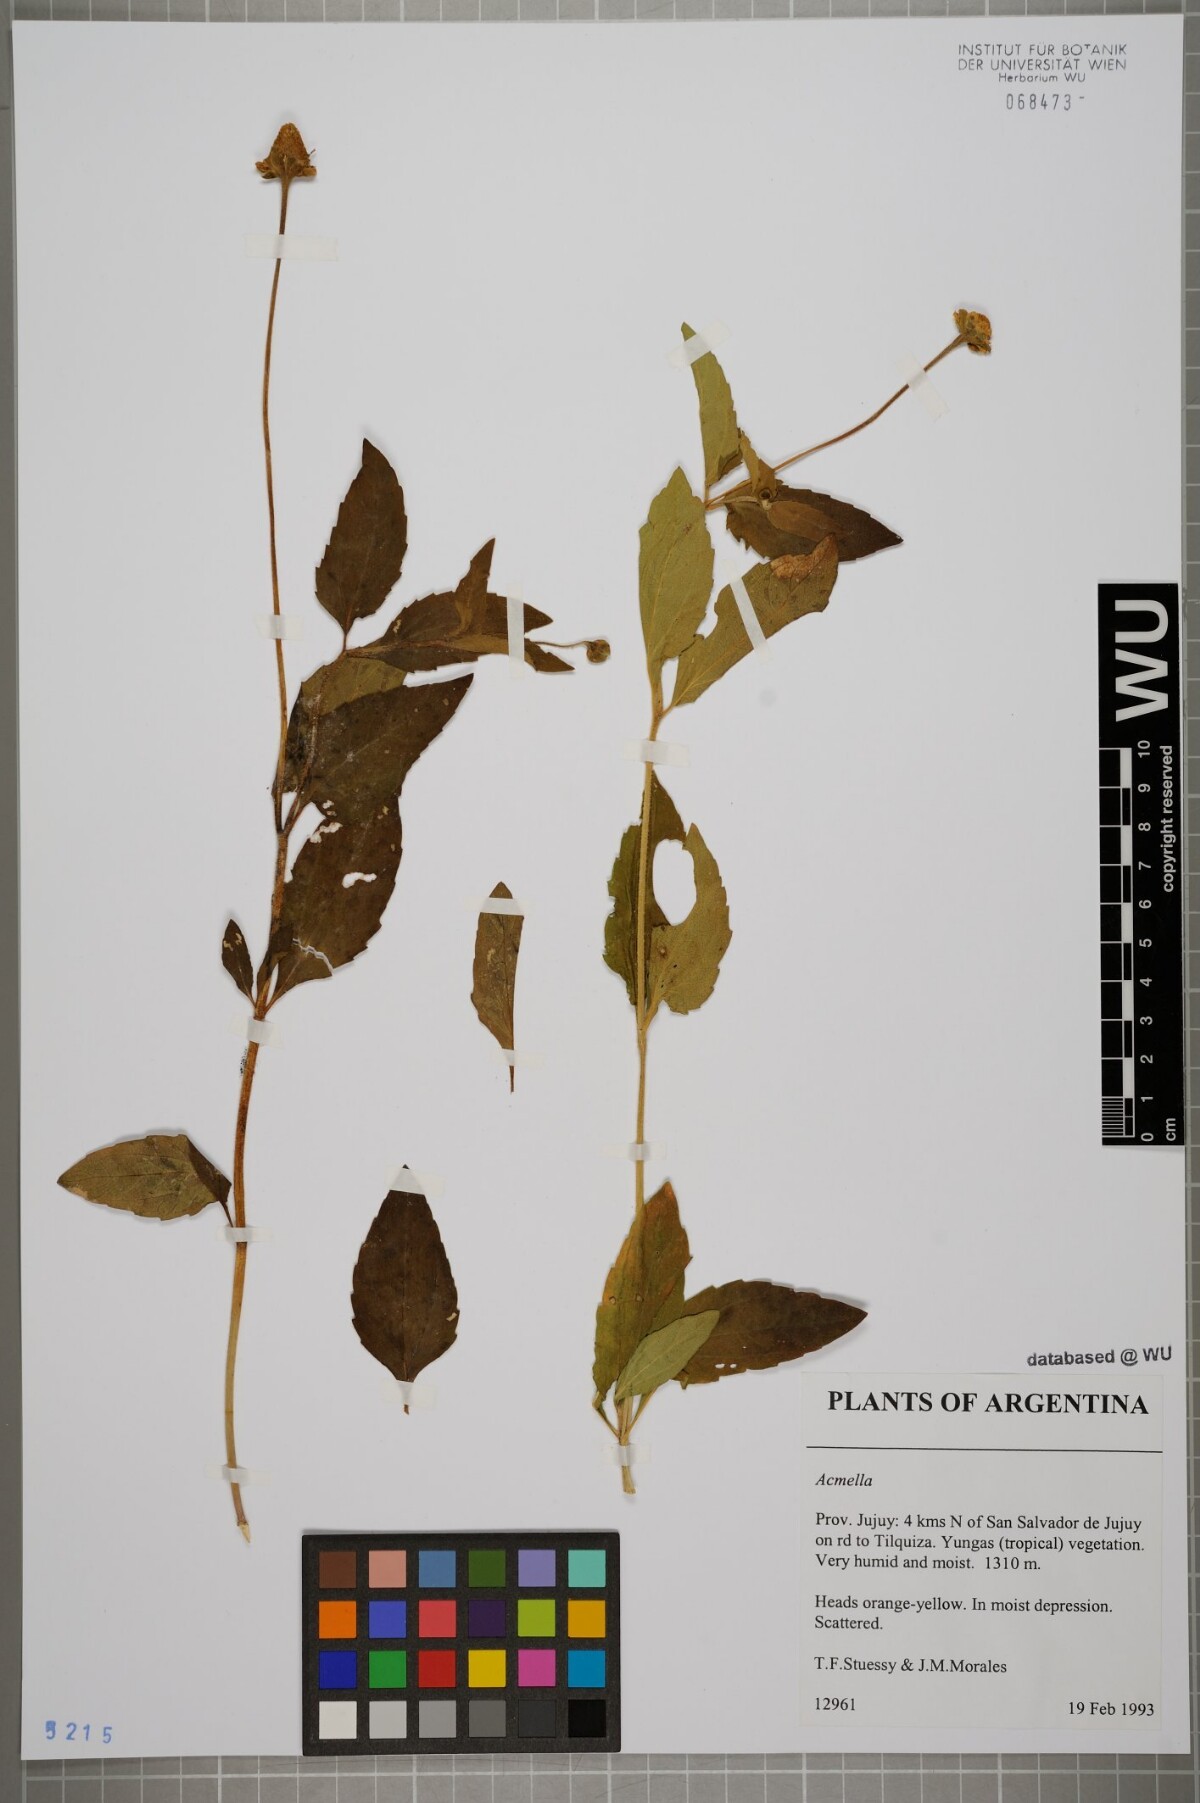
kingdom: Plantae
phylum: Tracheophyta
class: Magnoliopsida
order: Asterales
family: Asteraceae
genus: Acmella
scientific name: Acmella
